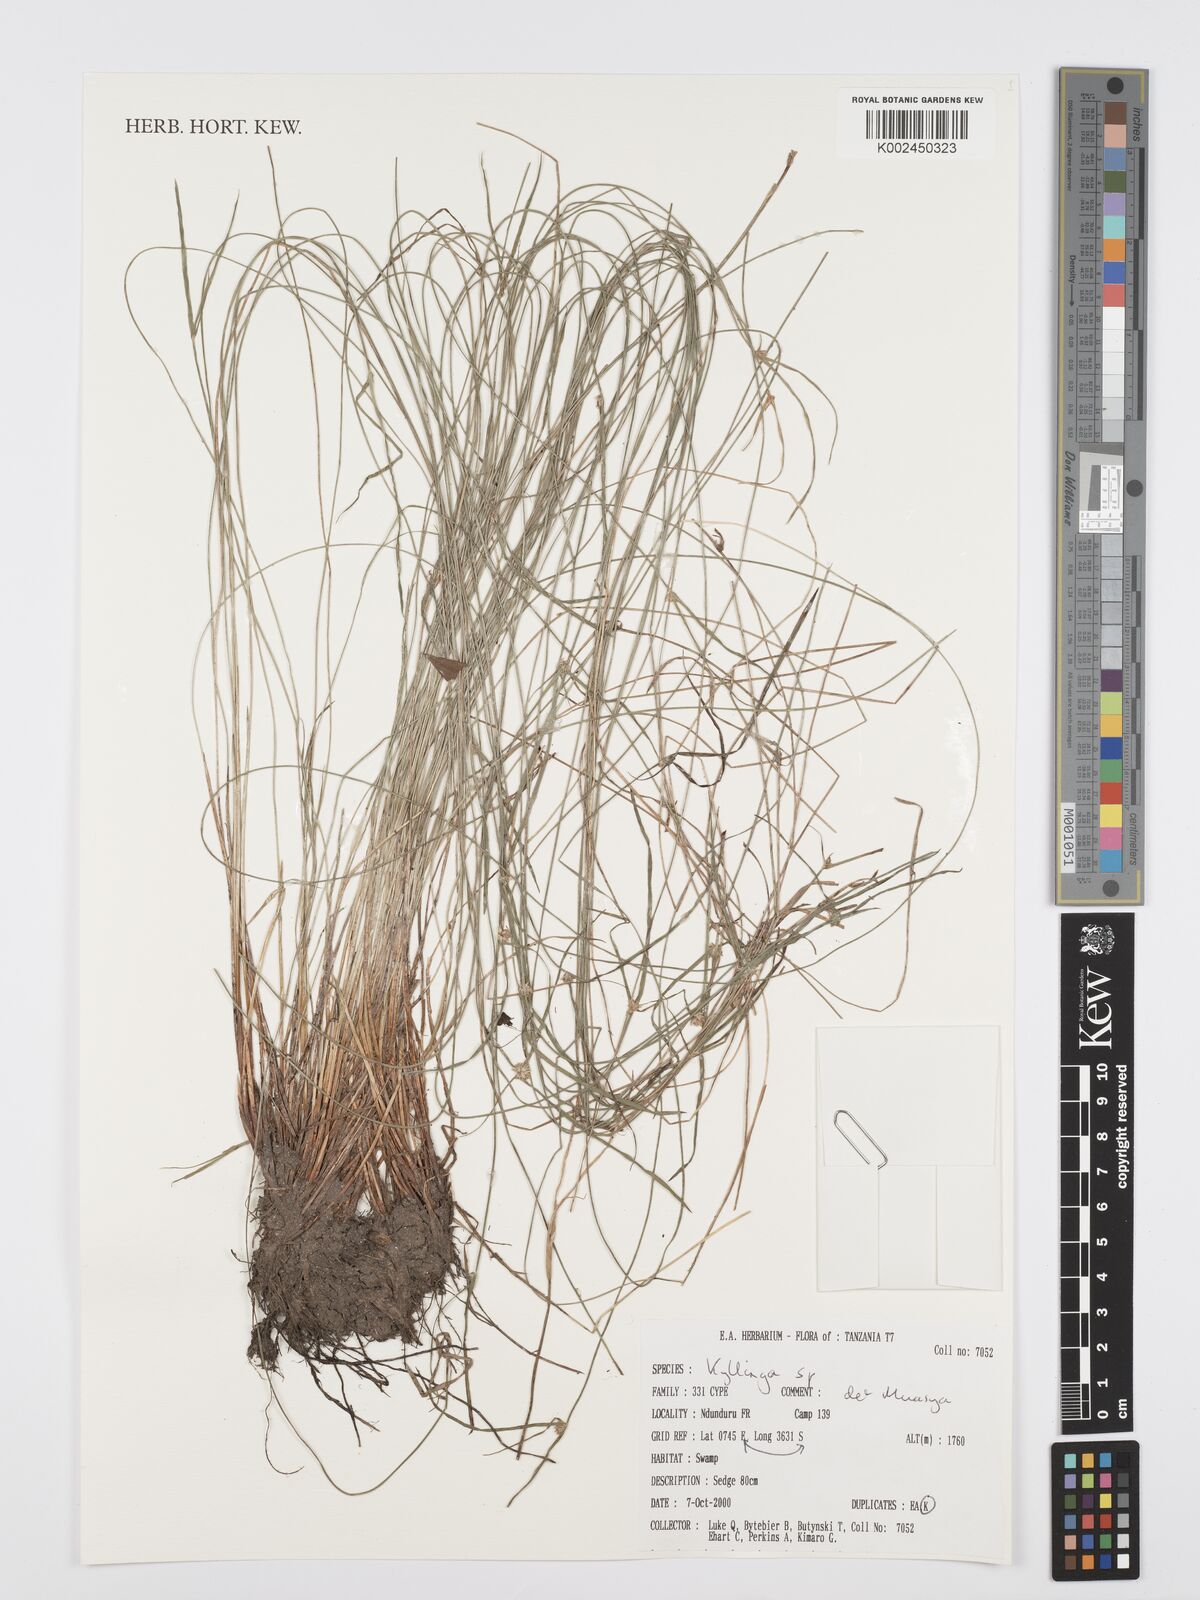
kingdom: Plantae
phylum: Tracheophyta
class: Liliopsida
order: Poales
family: Cyperaceae
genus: Cyperus
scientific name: Cyperus
